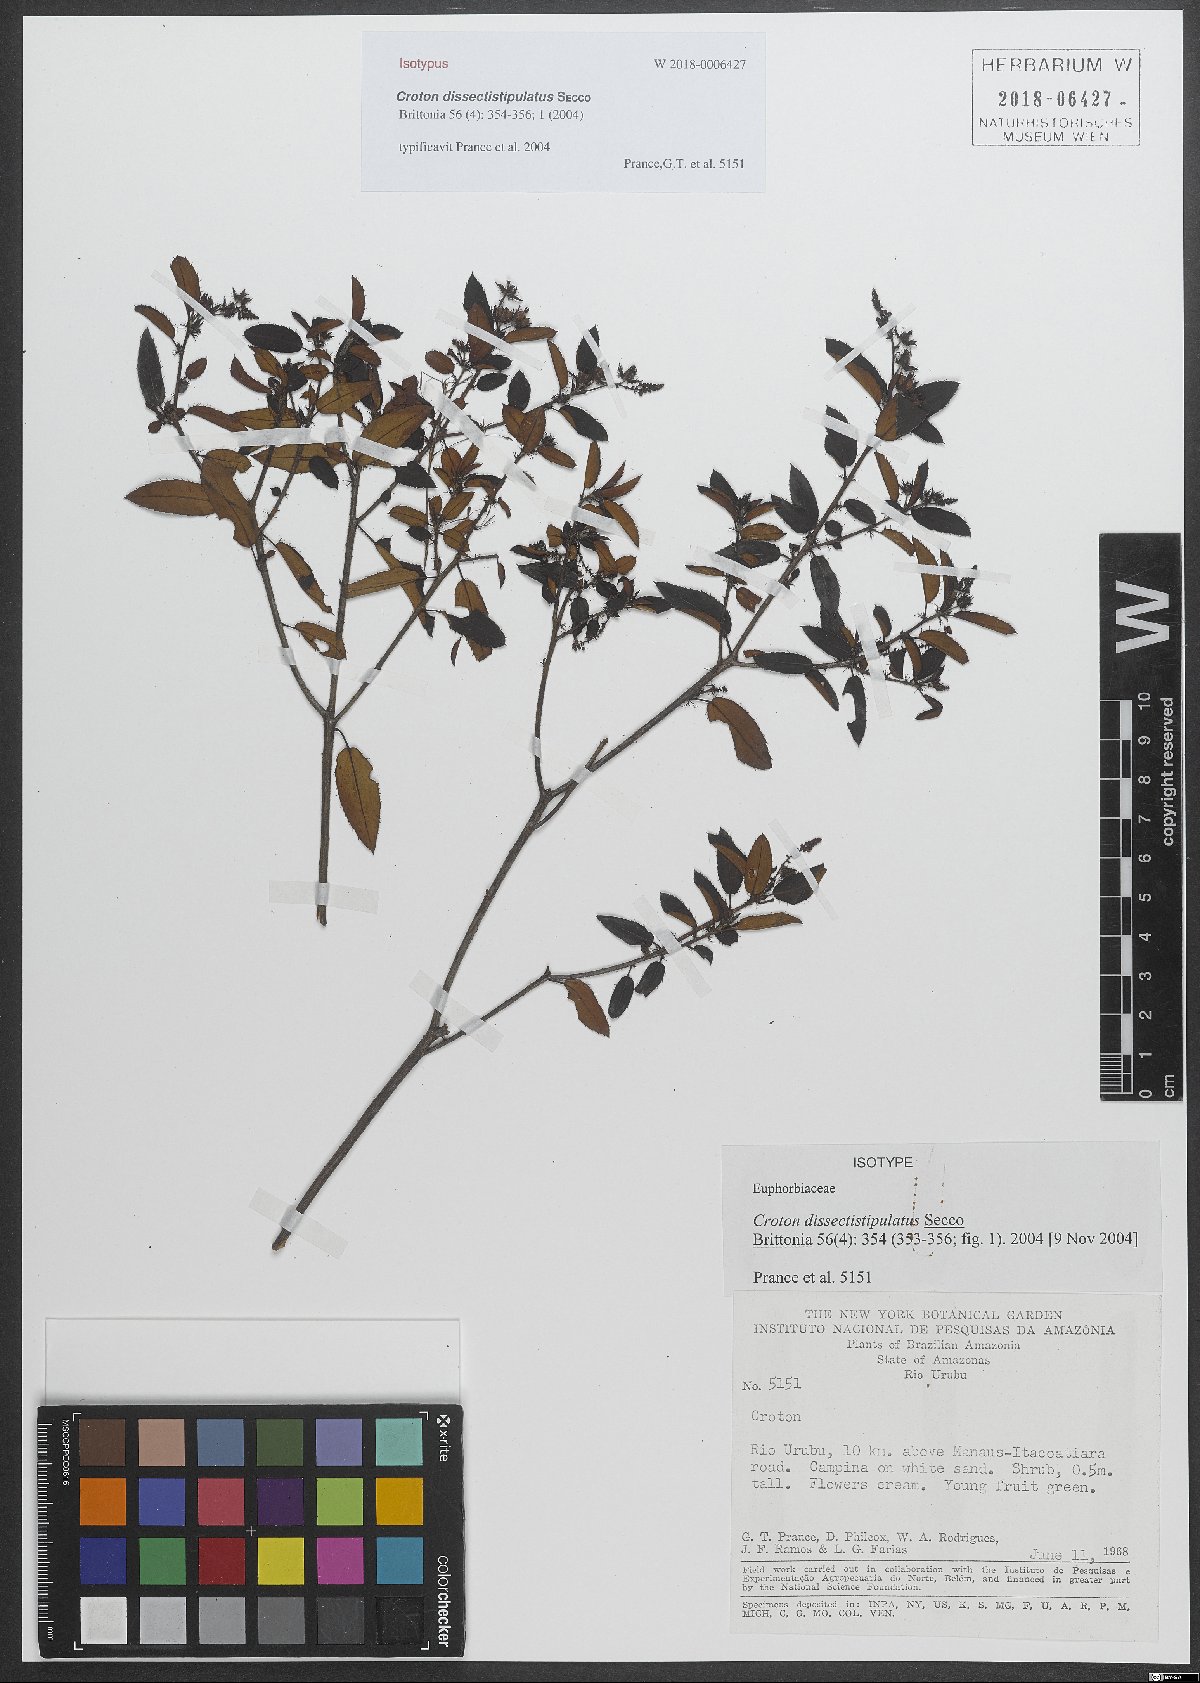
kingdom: Plantae
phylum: Tracheophyta
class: Magnoliopsida
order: Malpighiales
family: Euphorbiaceae
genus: Croton
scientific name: Croton dissectistipulatus
